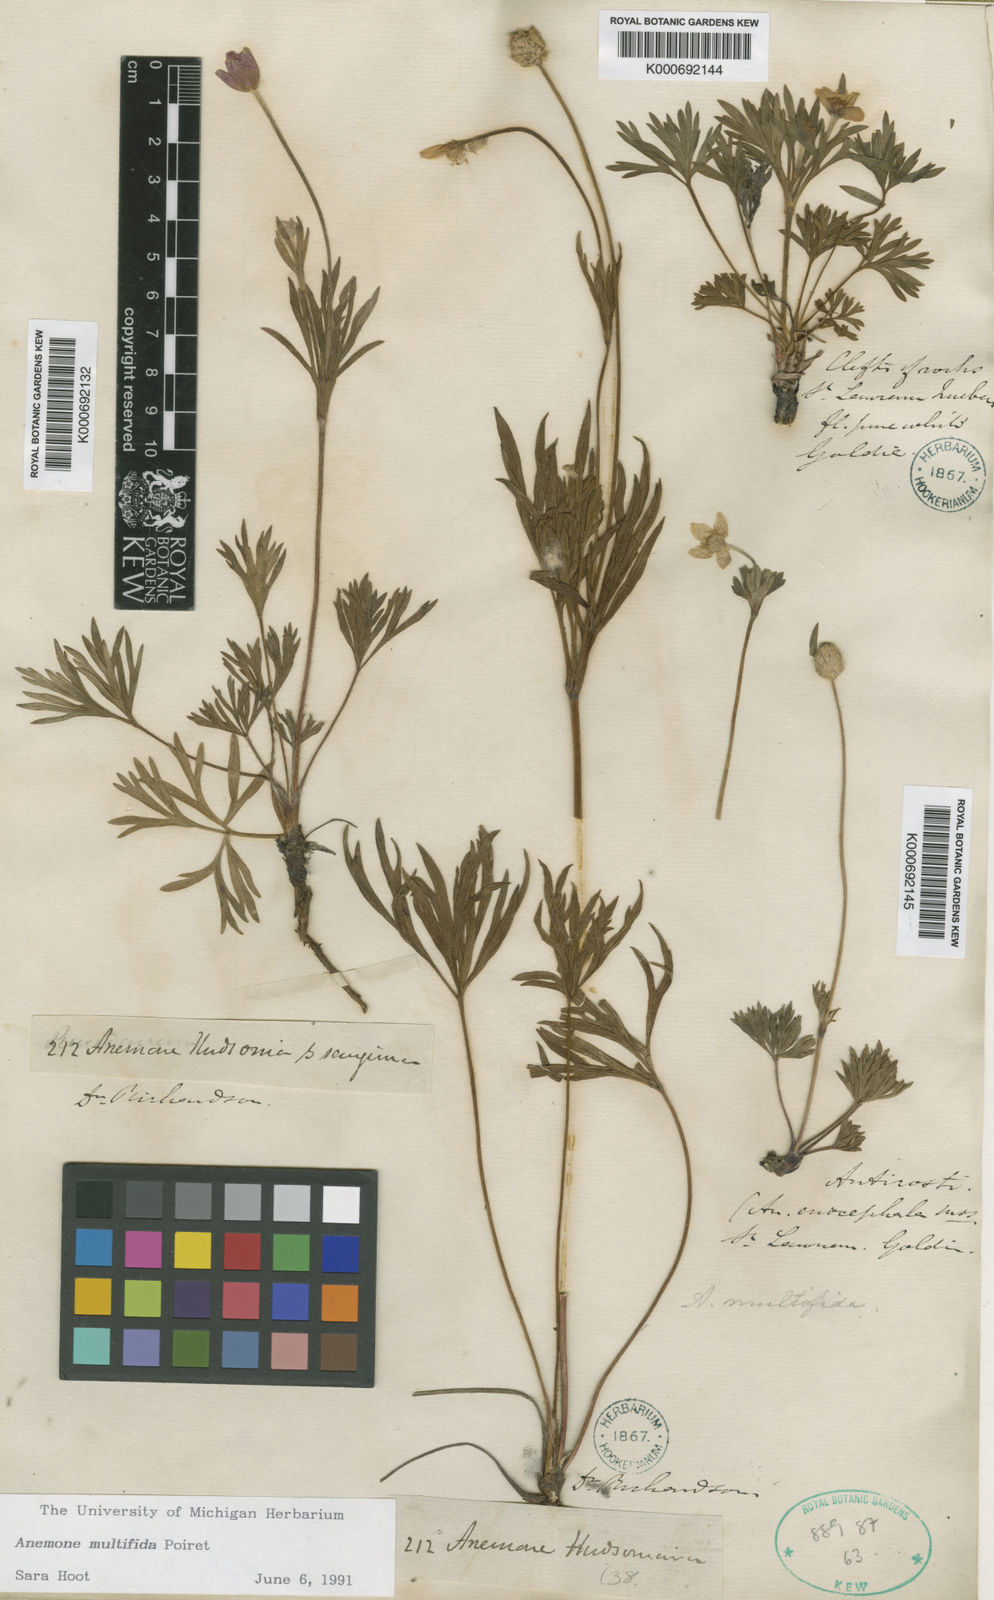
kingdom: Plantae
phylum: Tracheophyta
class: Magnoliopsida
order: Ranunculales
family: Ranunculaceae
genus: Anemone
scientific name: Anemone multifida
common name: Bird's-foot anemone
